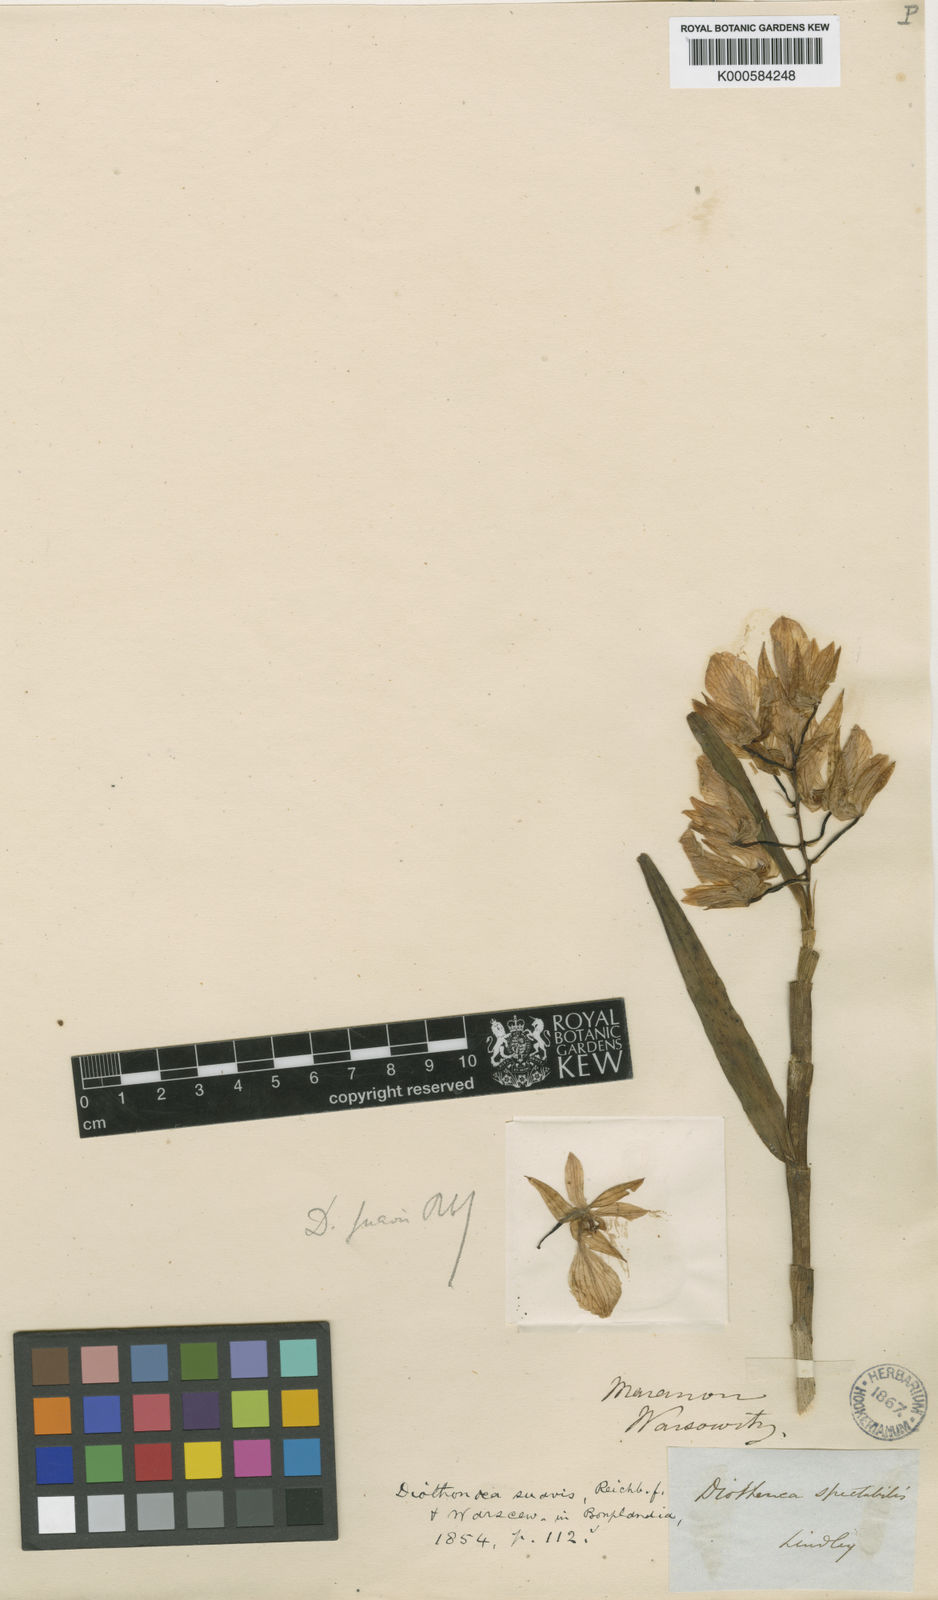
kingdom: Plantae
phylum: Tracheophyta
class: Liliopsida
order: Asparagales
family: Orchidaceae
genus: Epidendrum
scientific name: Epidendrum suavis
